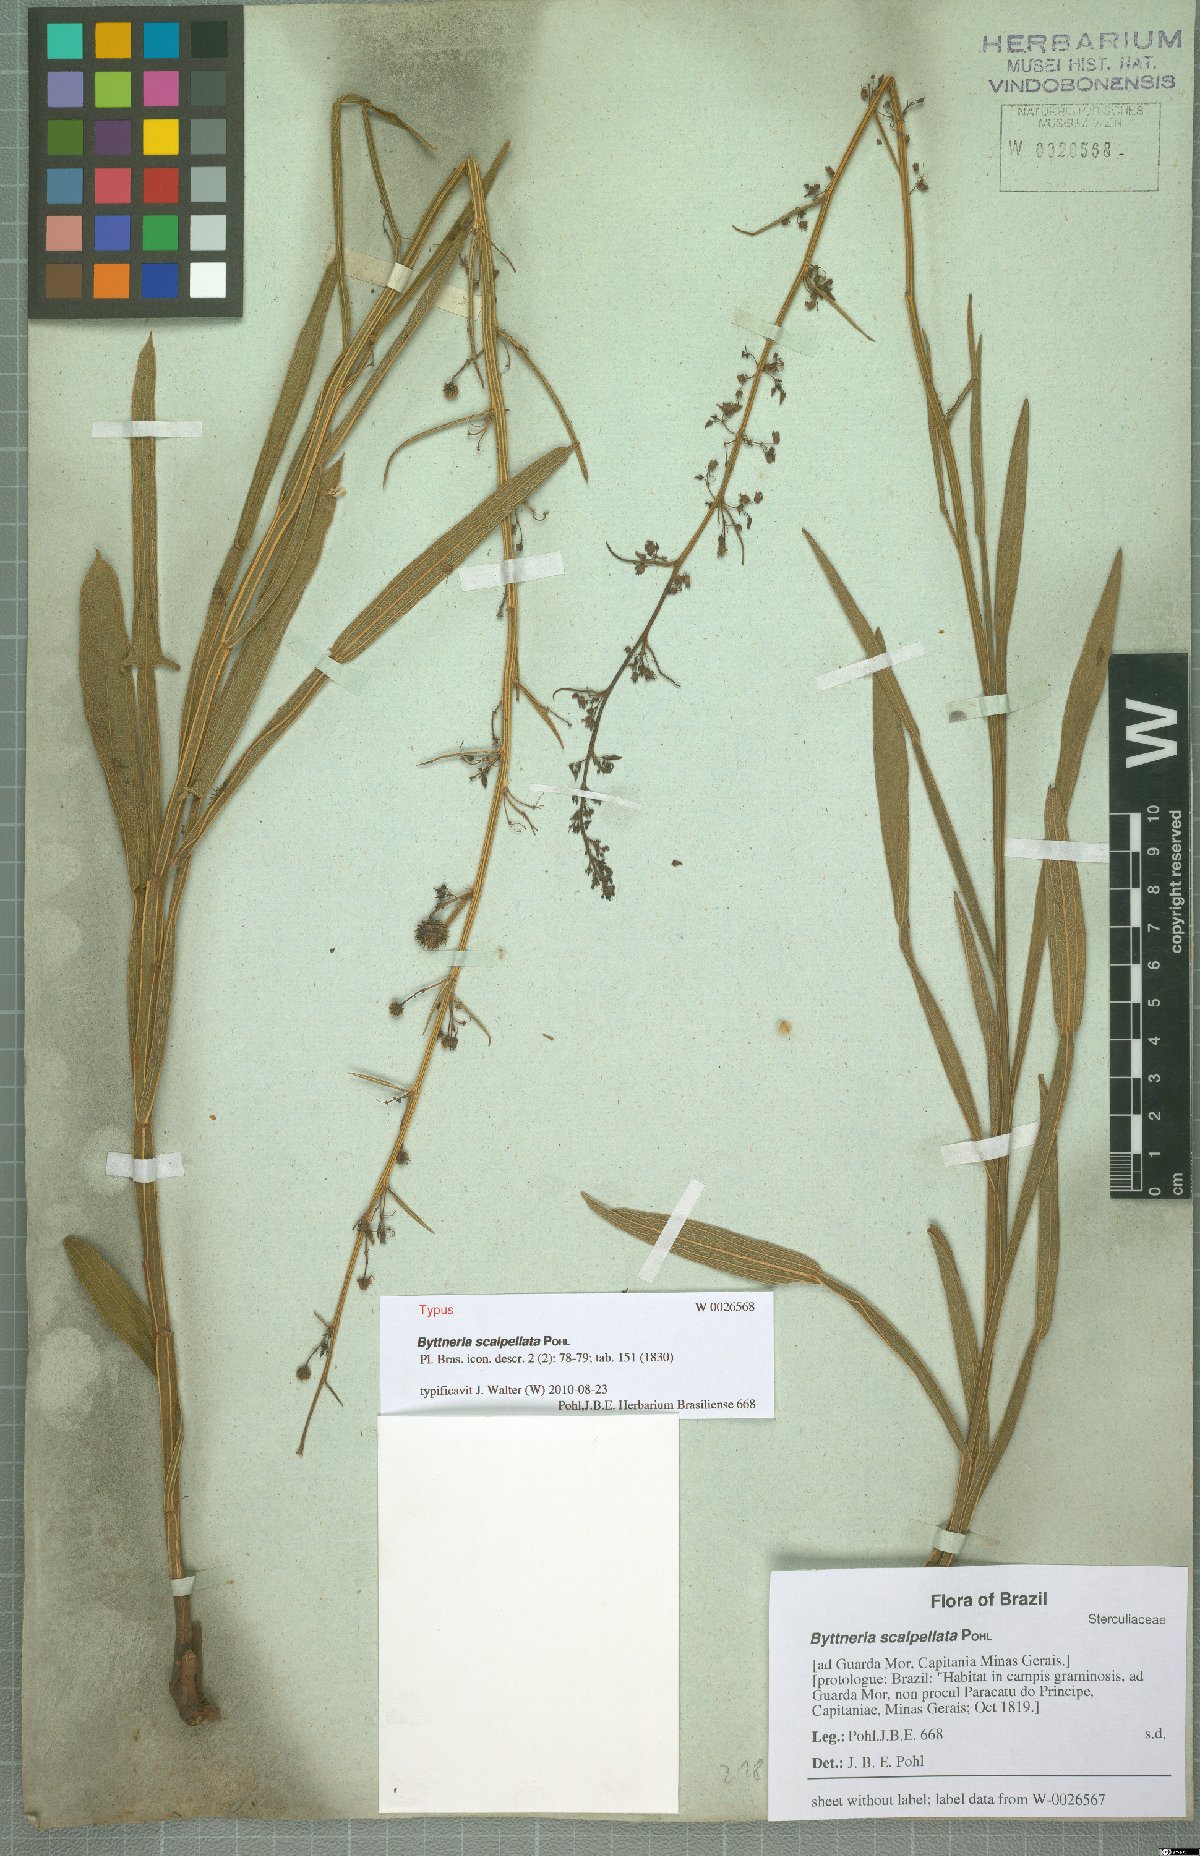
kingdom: Plantae
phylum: Tracheophyta
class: Magnoliopsida
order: Malvales
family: Malvaceae
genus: Byttneria
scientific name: Byttneria scalpellata
